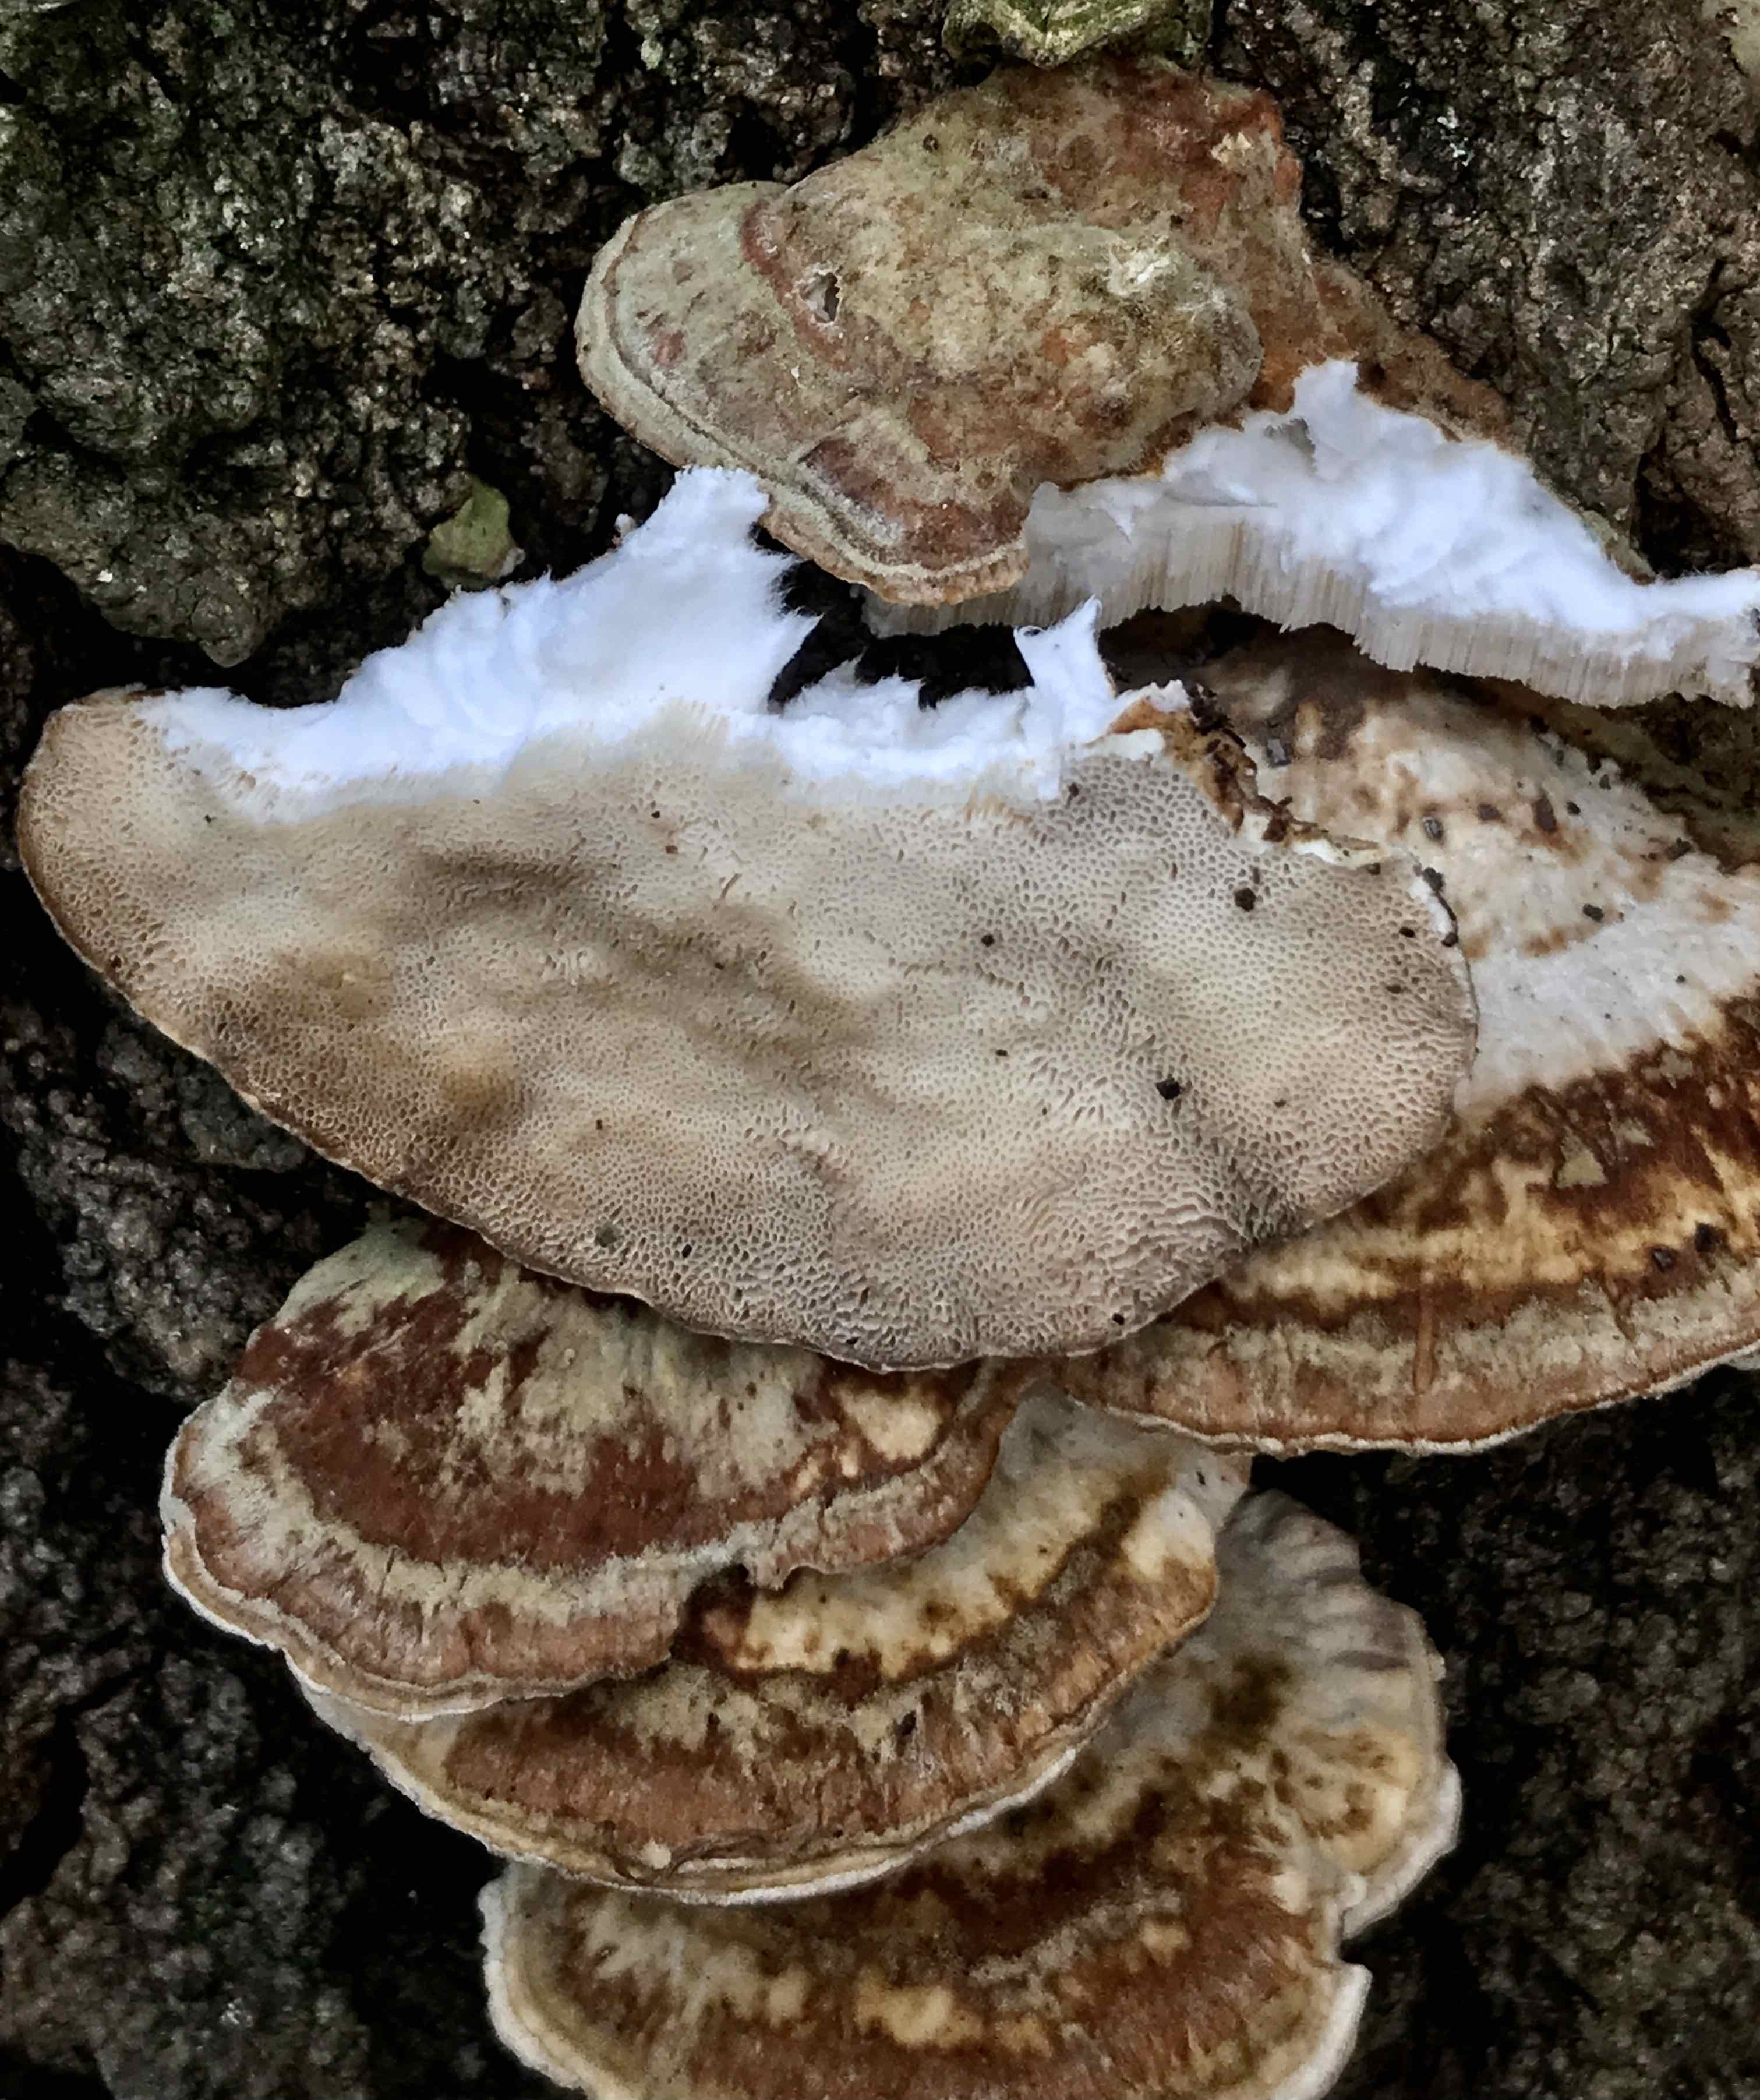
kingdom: Fungi
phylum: Basidiomycota
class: Agaricomycetes
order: Polyporales
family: Polyporaceae
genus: Trametes
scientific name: Trametes ochracea
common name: bæltet læderporesvamp
